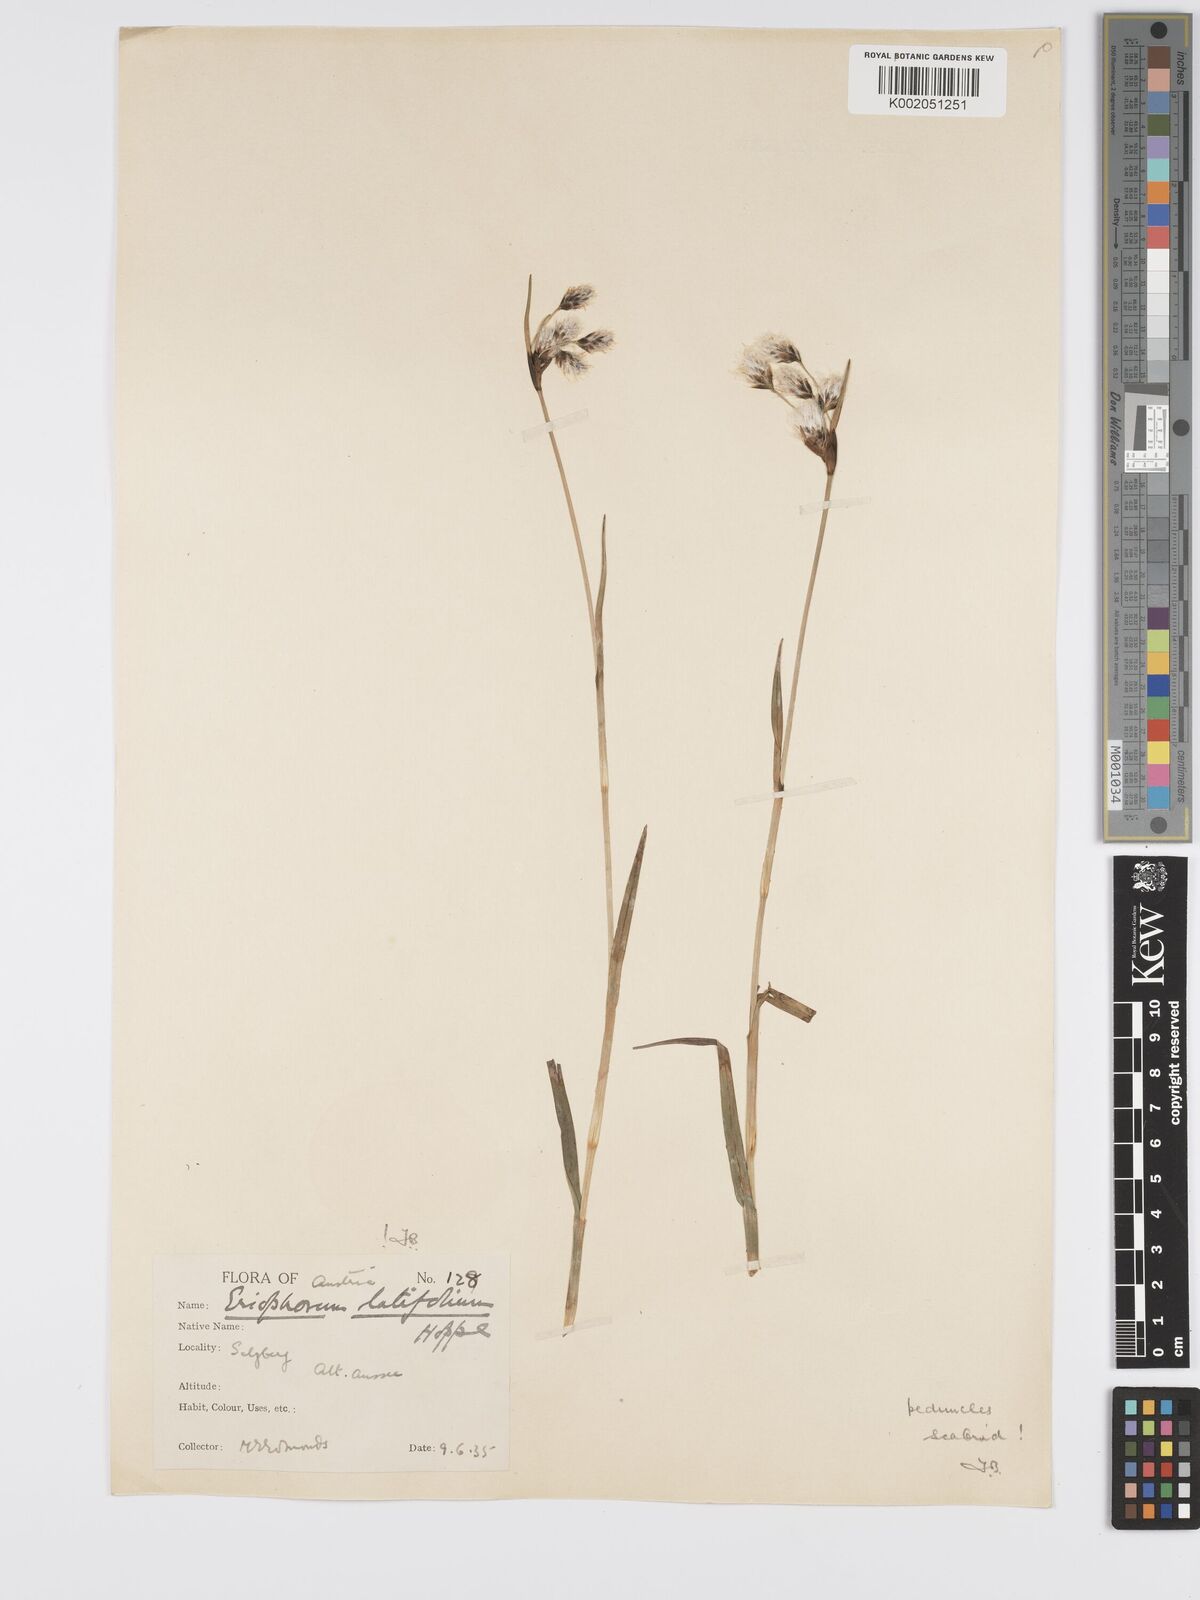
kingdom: Plantae
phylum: Tracheophyta
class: Liliopsida
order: Poales
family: Cyperaceae
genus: Eriophorum
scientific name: Eriophorum latifolium
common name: Broad-leaved cottongrass
